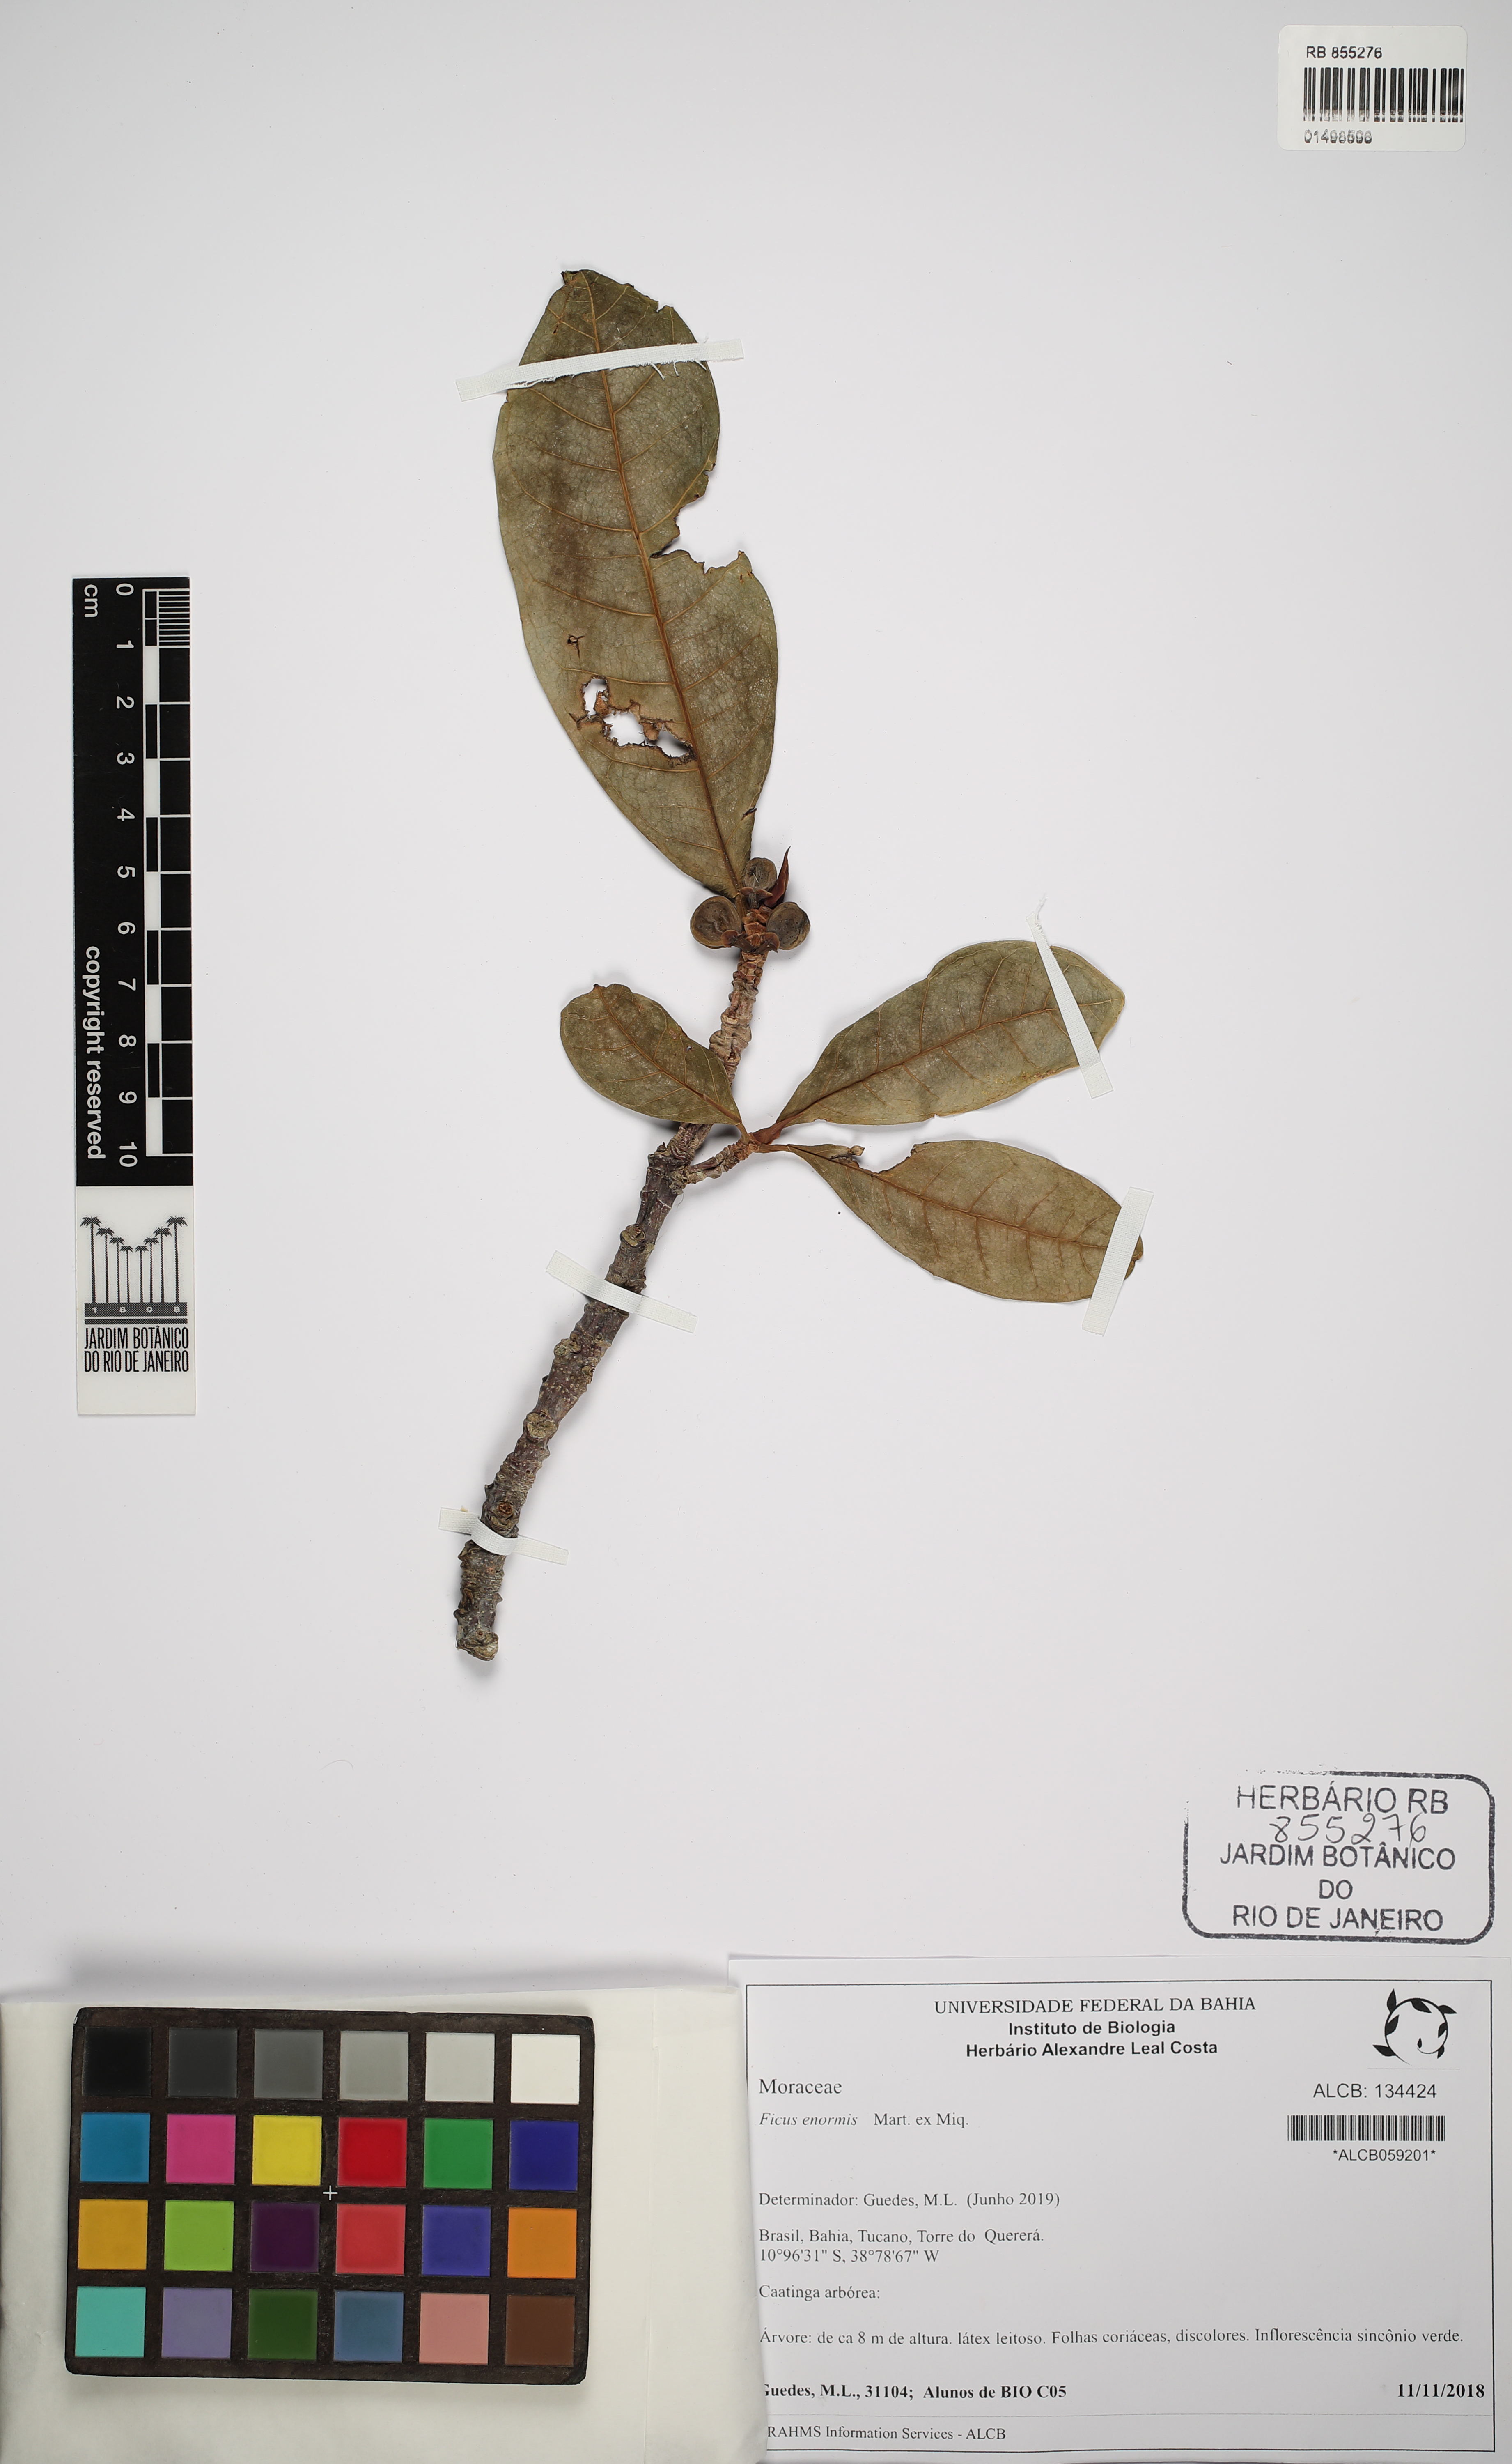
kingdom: Plantae
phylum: Tracheophyta
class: Magnoliopsida
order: Rosales
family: Moraceae
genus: Ficus
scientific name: Ficus enormis
